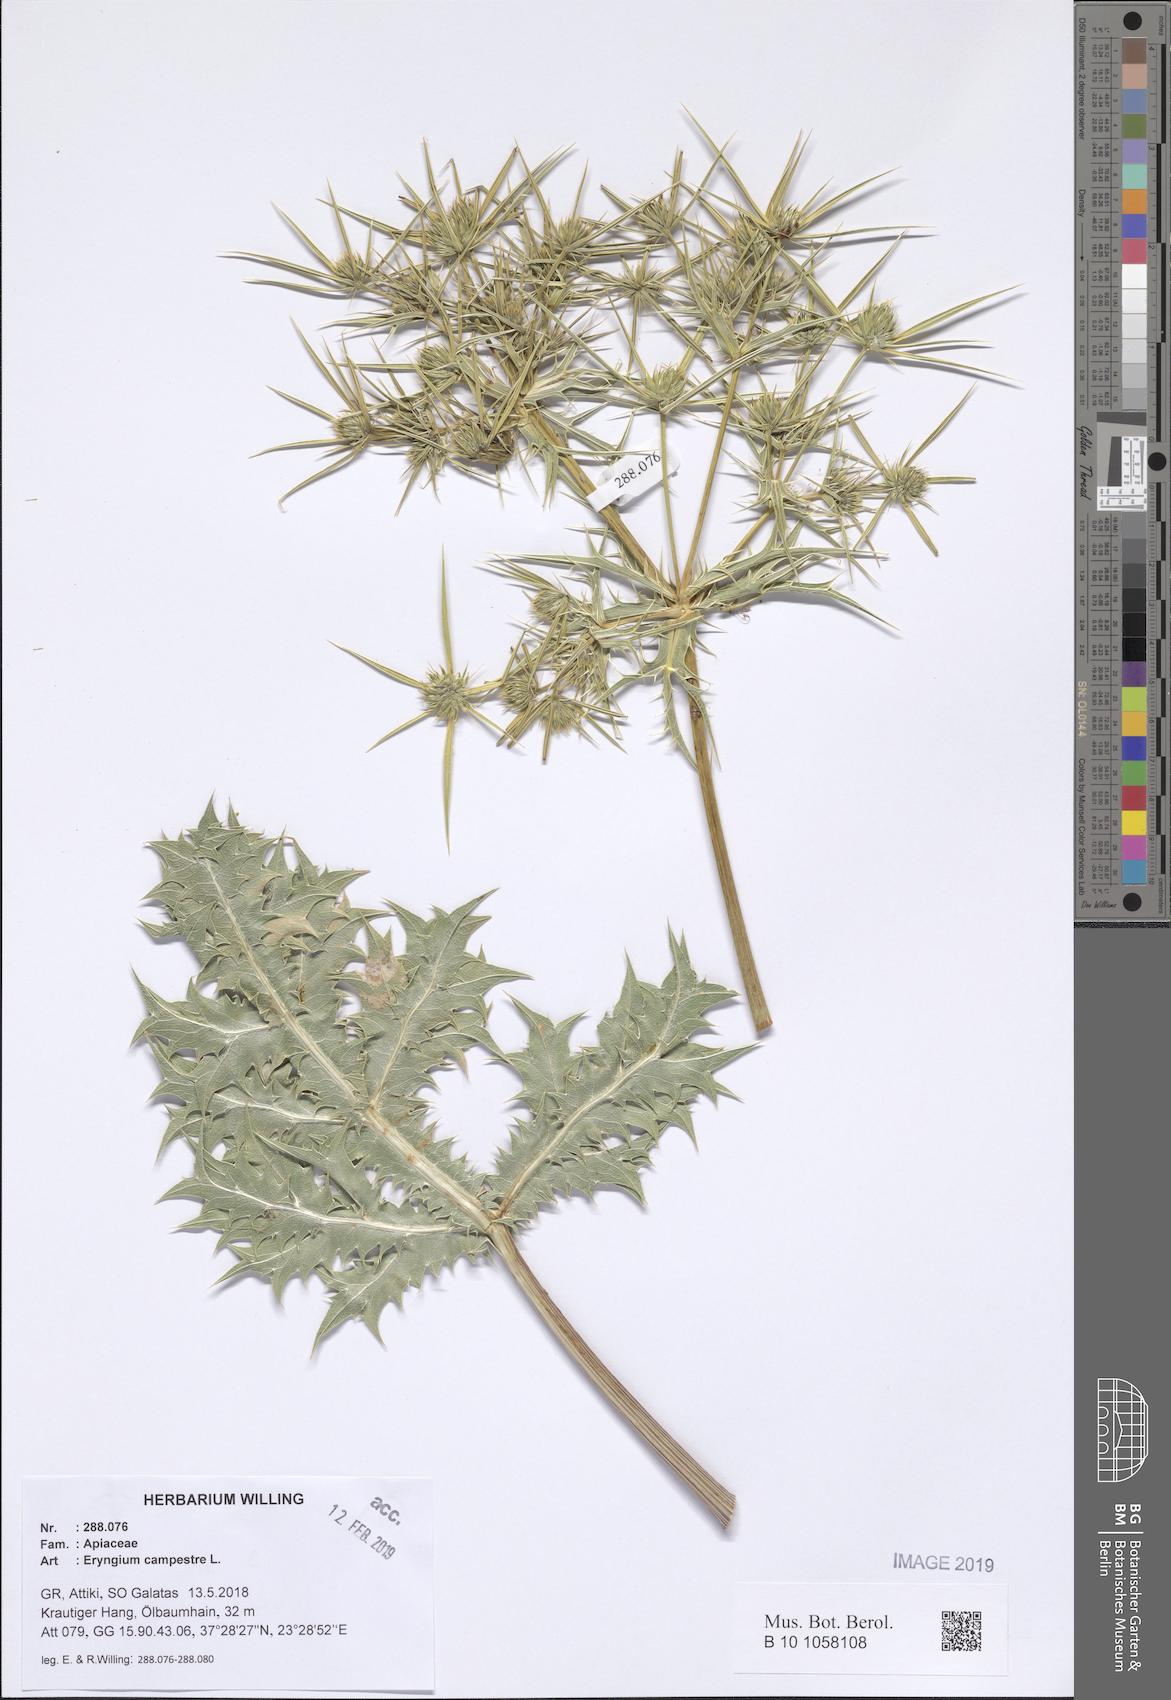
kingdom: Plantae
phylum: Tracheophyta
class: Magnoliopsida
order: Apiales
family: Apiaceae
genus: Eryngium
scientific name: Eryngium campestre
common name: Field eryngo
